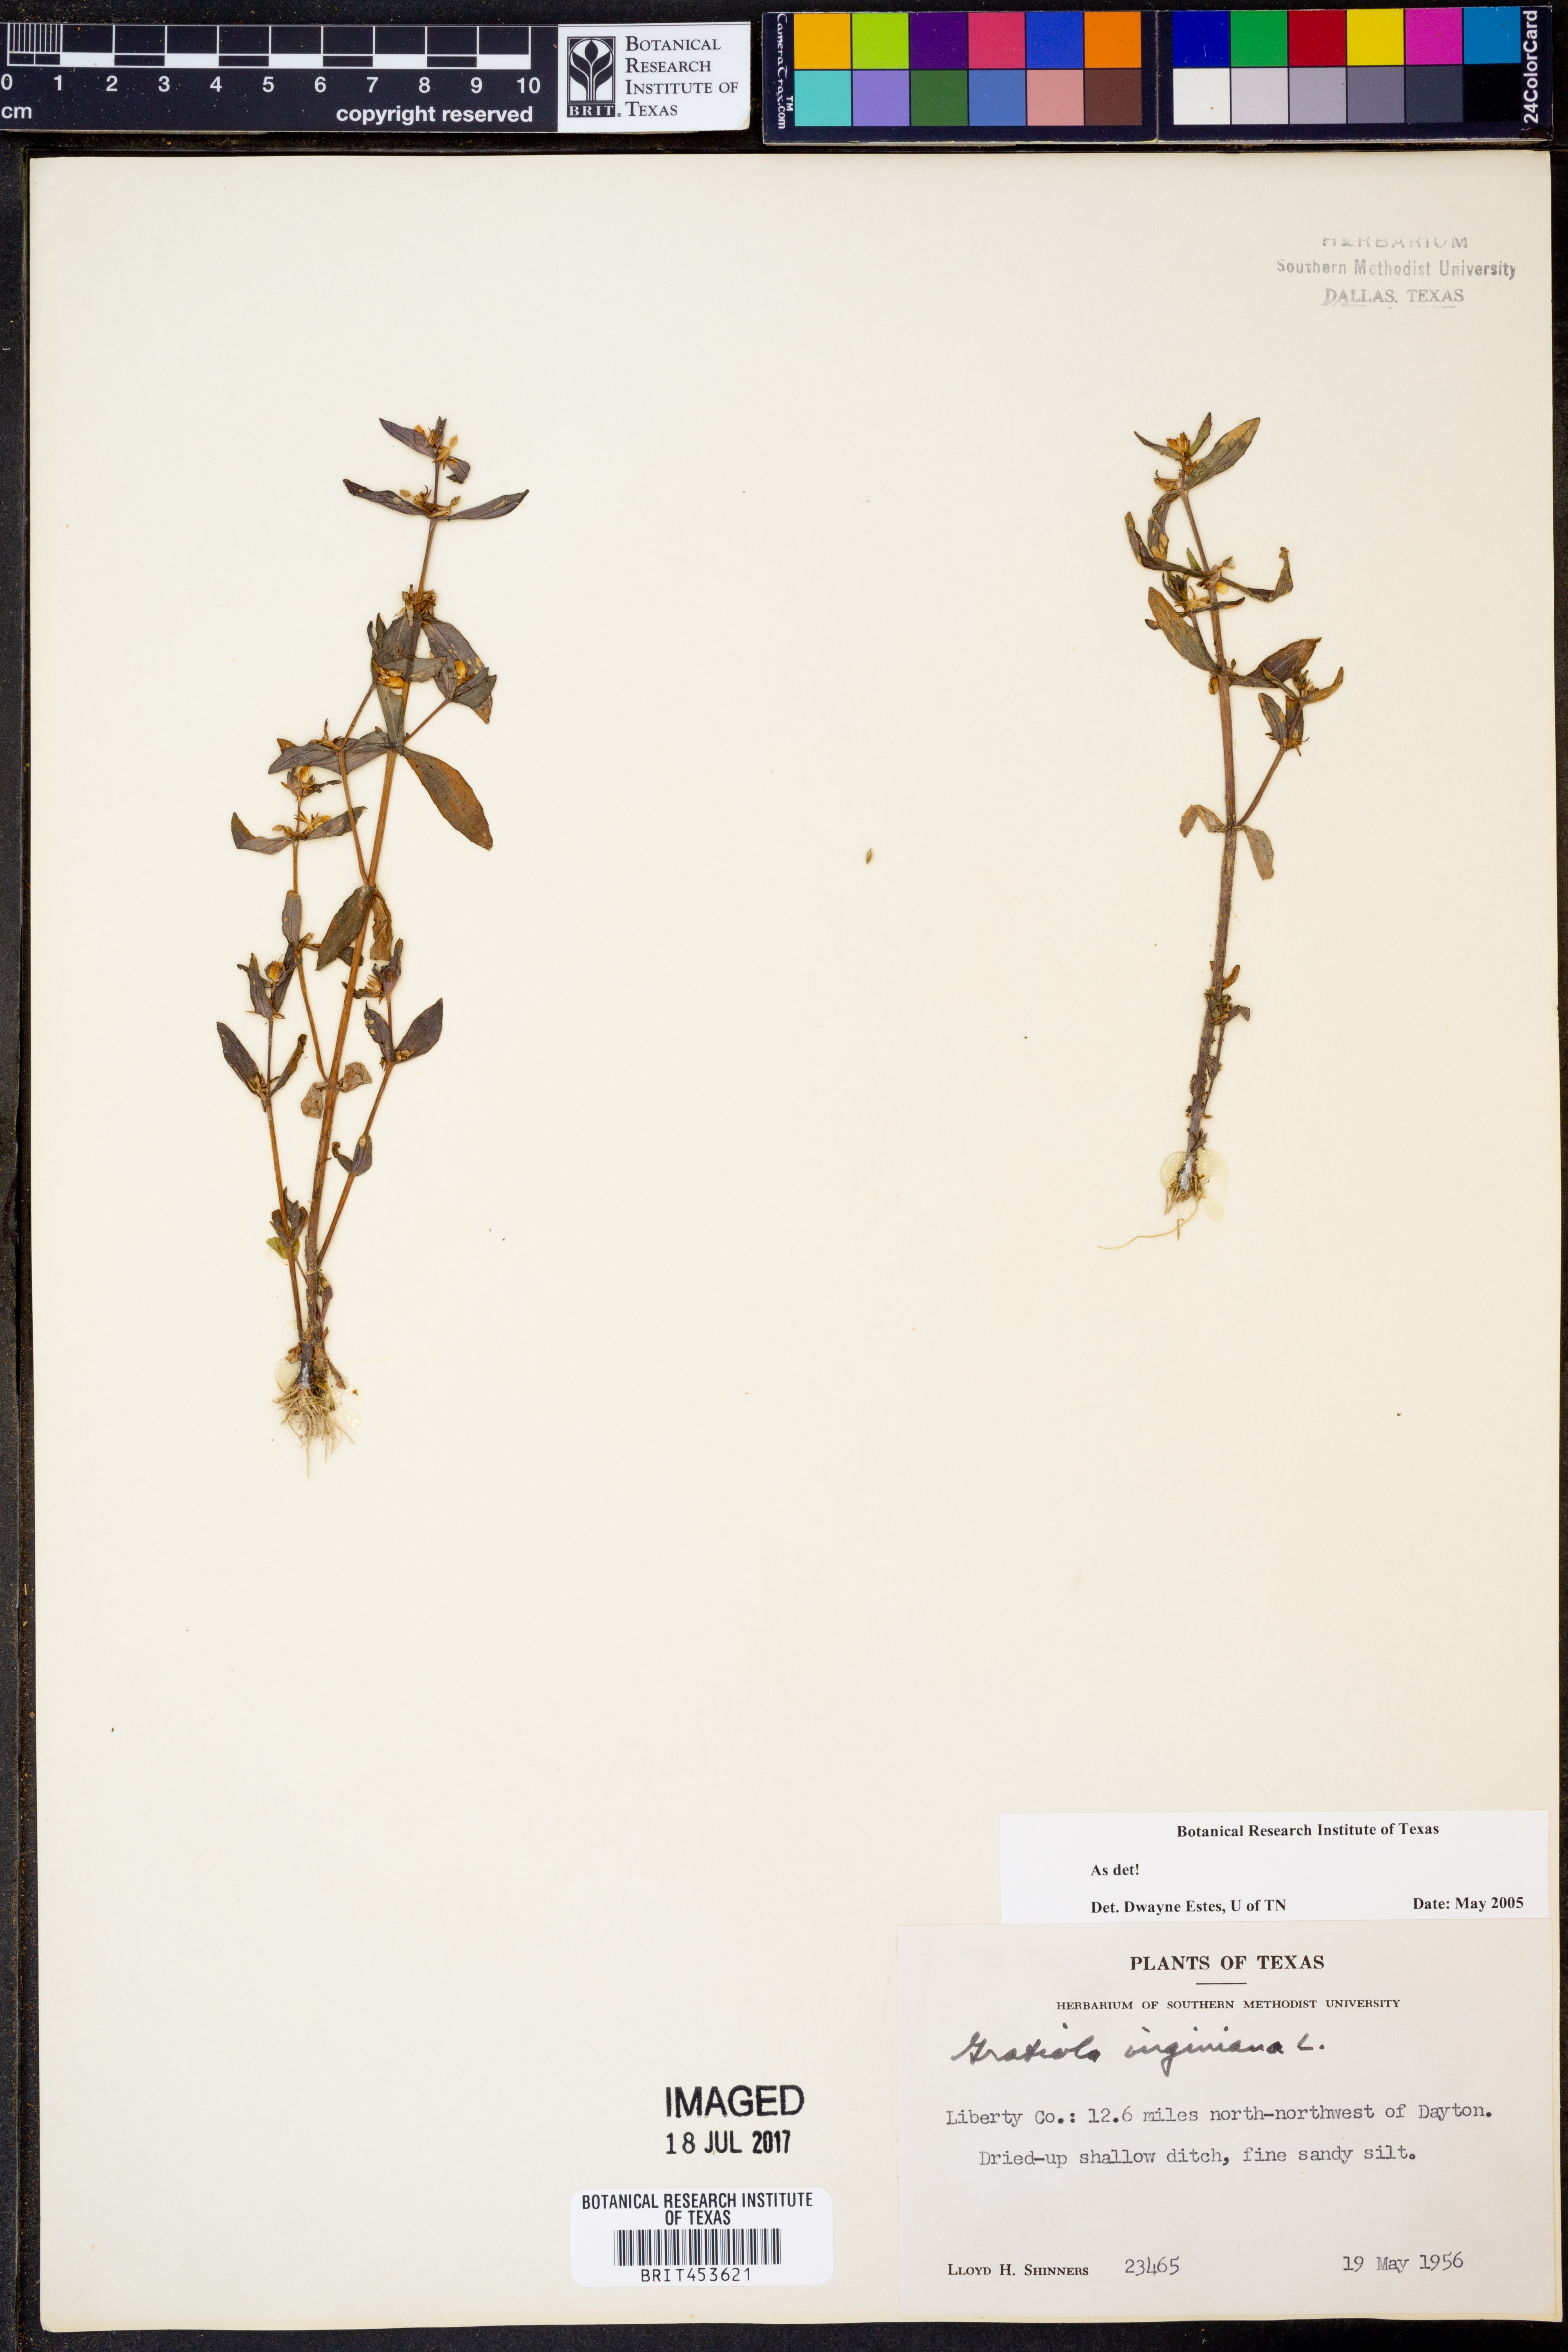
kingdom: Plantae
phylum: Tracheophyta
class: Magnoliopsida
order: Lamiales
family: Plantaginaceae
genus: Gratiola
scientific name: Gratiola virginiana
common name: Roundfruit hedgehyssop
